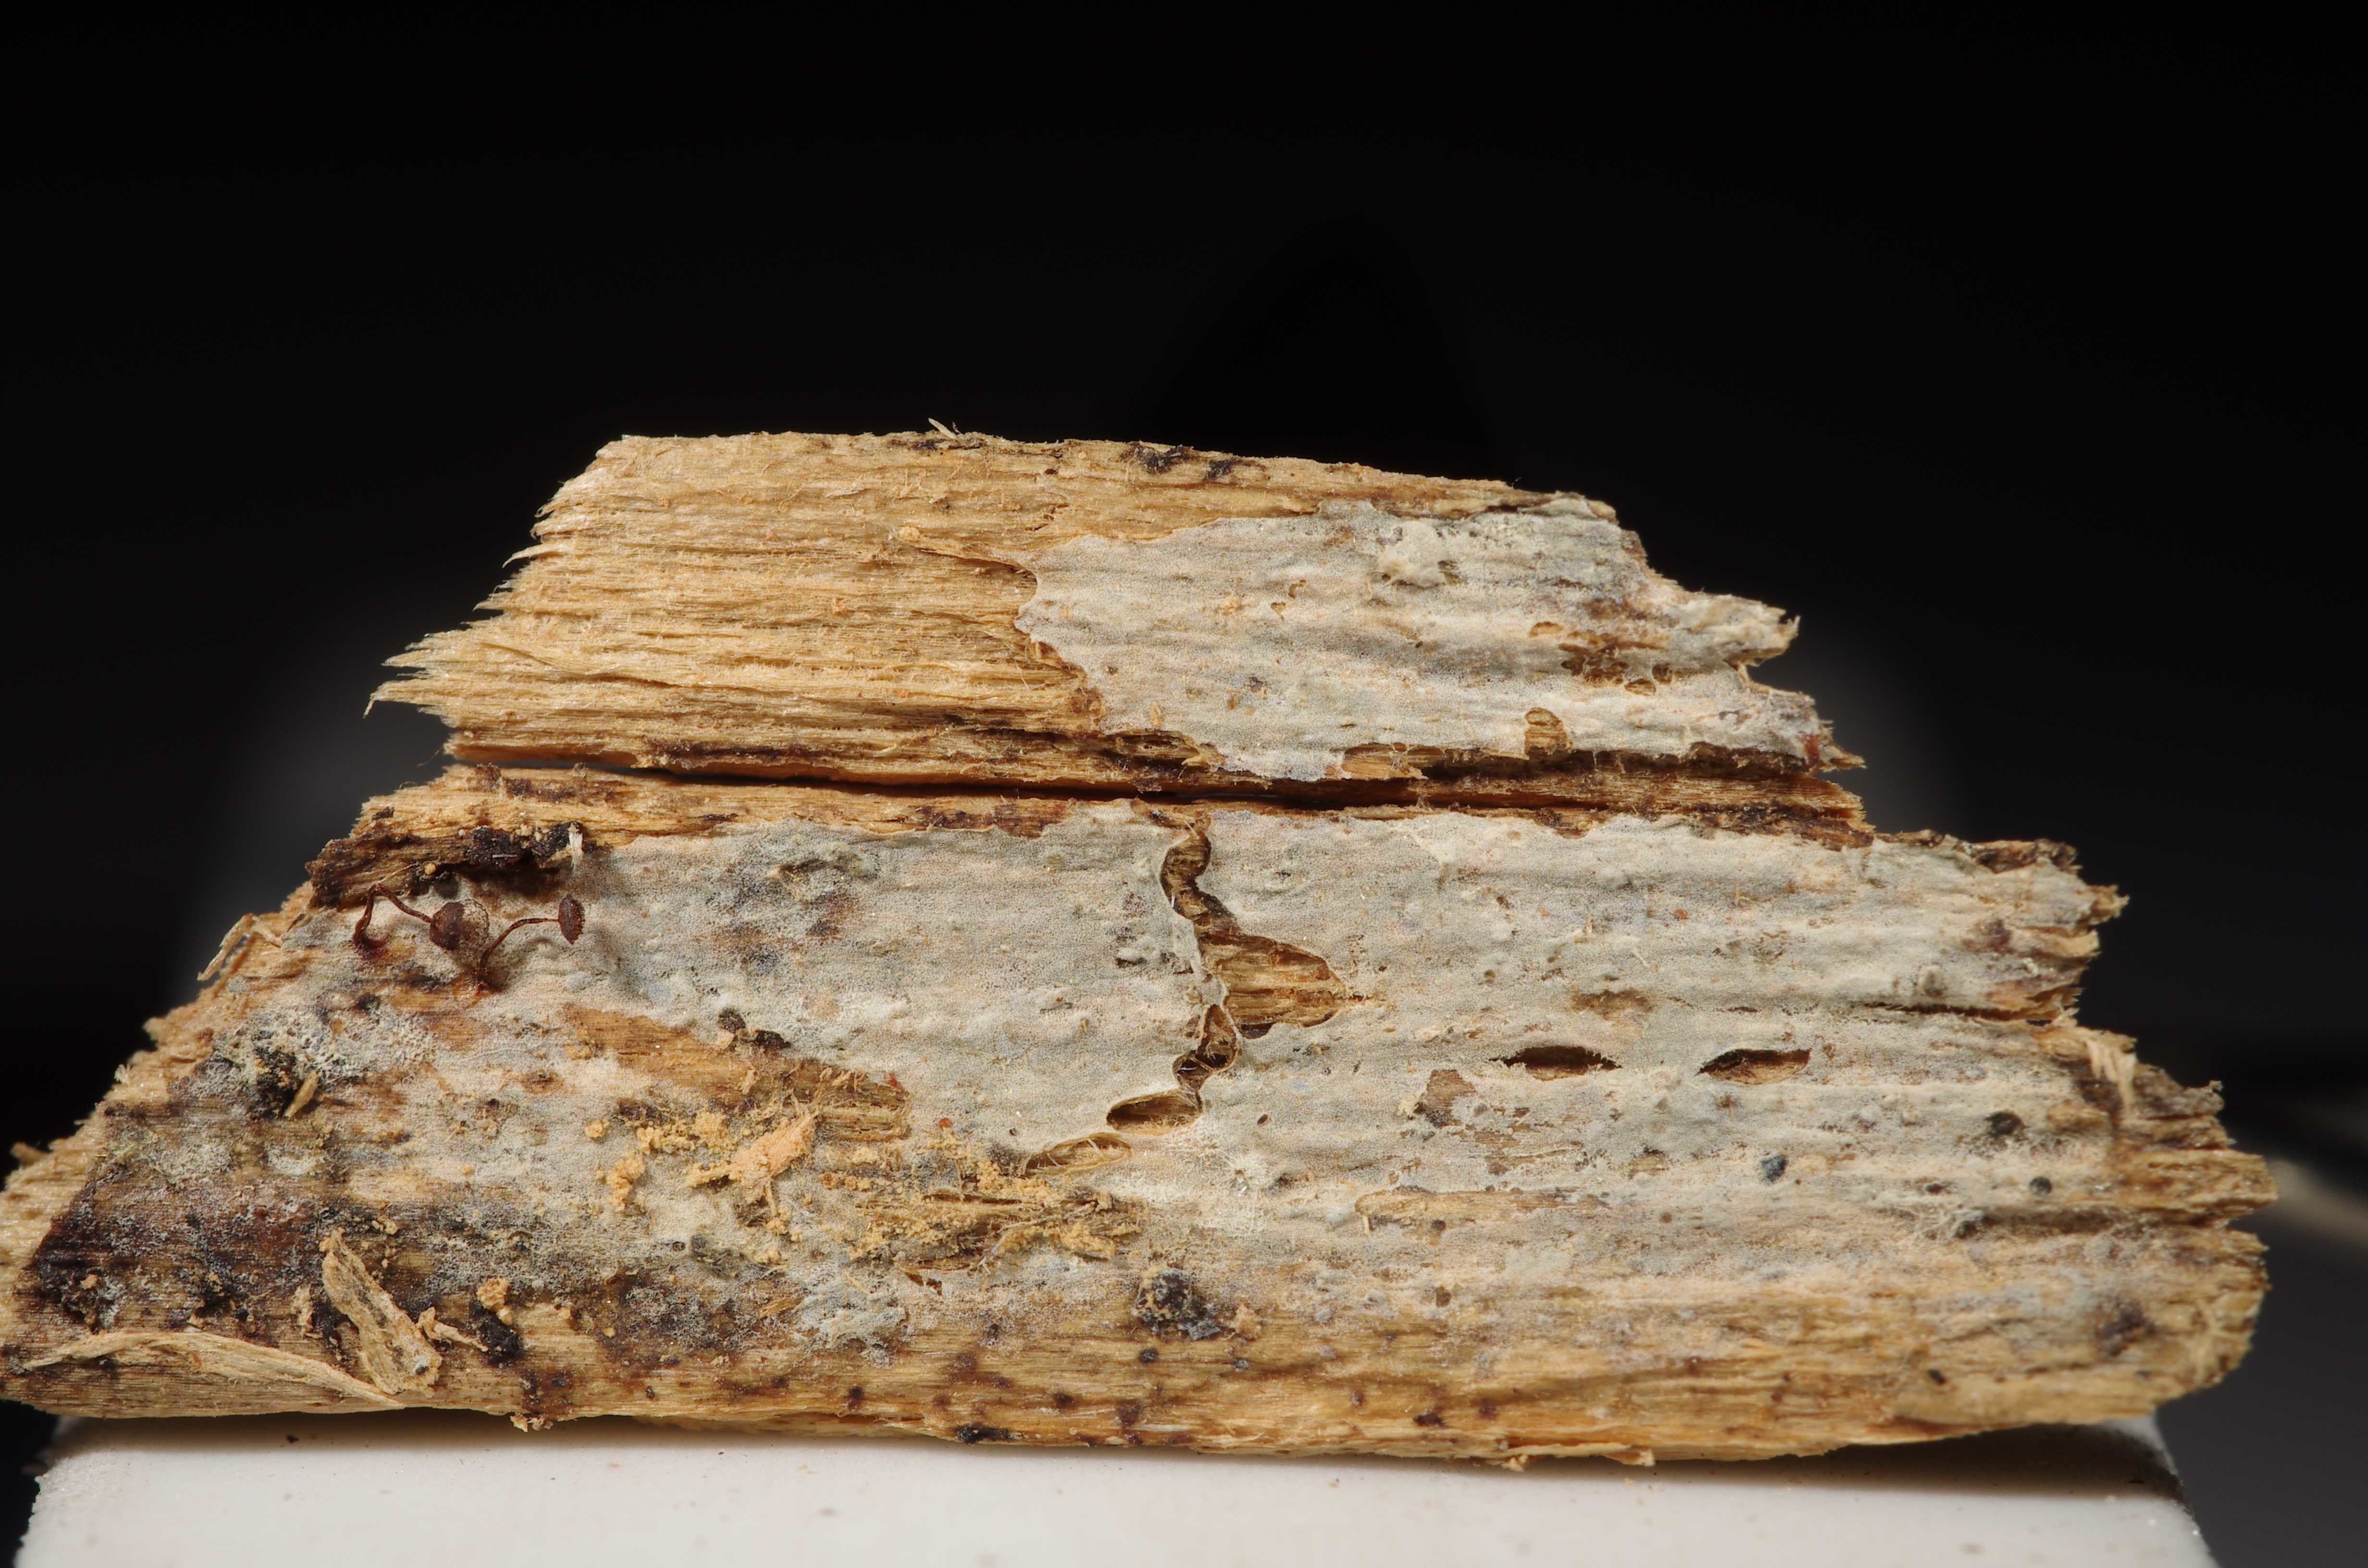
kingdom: Fungi
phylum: Basidiomycota
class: Agaricomycetes
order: Auriculariales
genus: Basidiodendron
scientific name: Basidiodendron caesiocinereum
